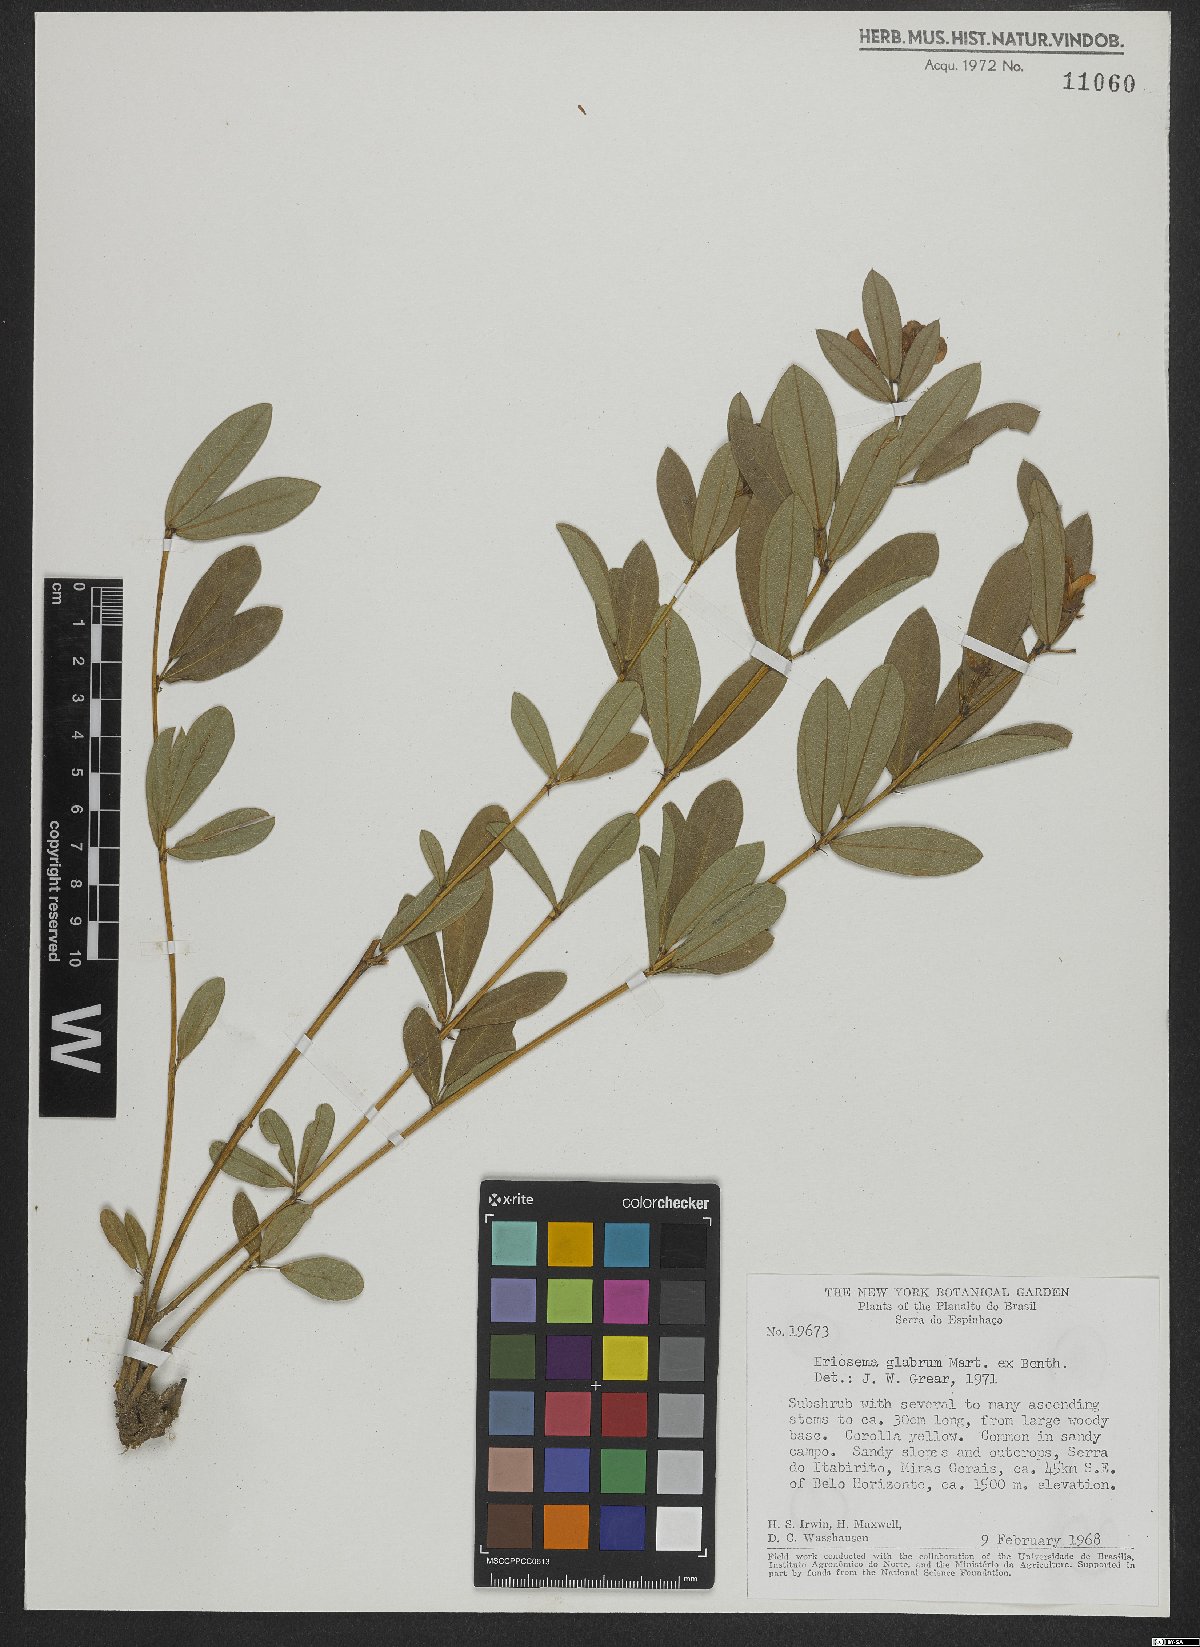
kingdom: Plantae
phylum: Tracheophyta
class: Magnoliopsida
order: Fabales
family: Fabaceae
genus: Eriosema
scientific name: Eriosema glabrum
